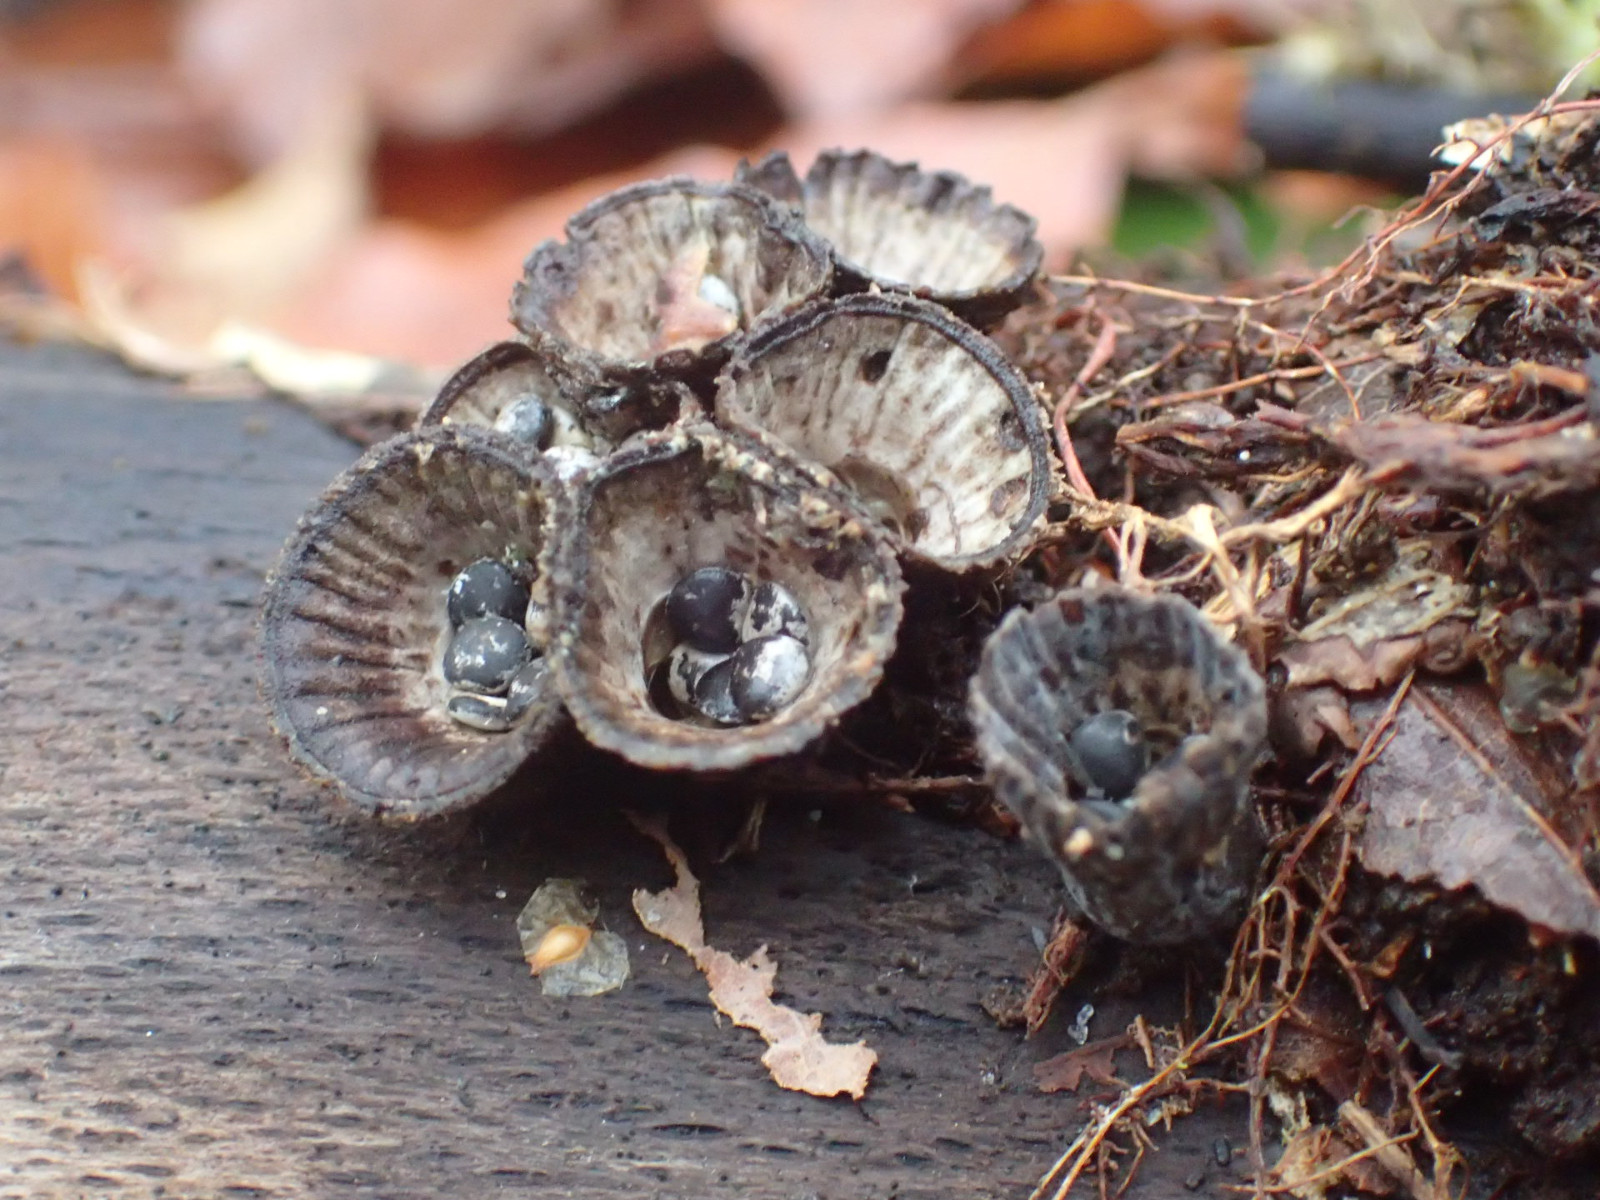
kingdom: Fungi
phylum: Basidiomycota
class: Agaricomycetes
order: Agaricales
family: Agaricaceae
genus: Cyathus
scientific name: Cyathus striatus
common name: stribet redesvamp
